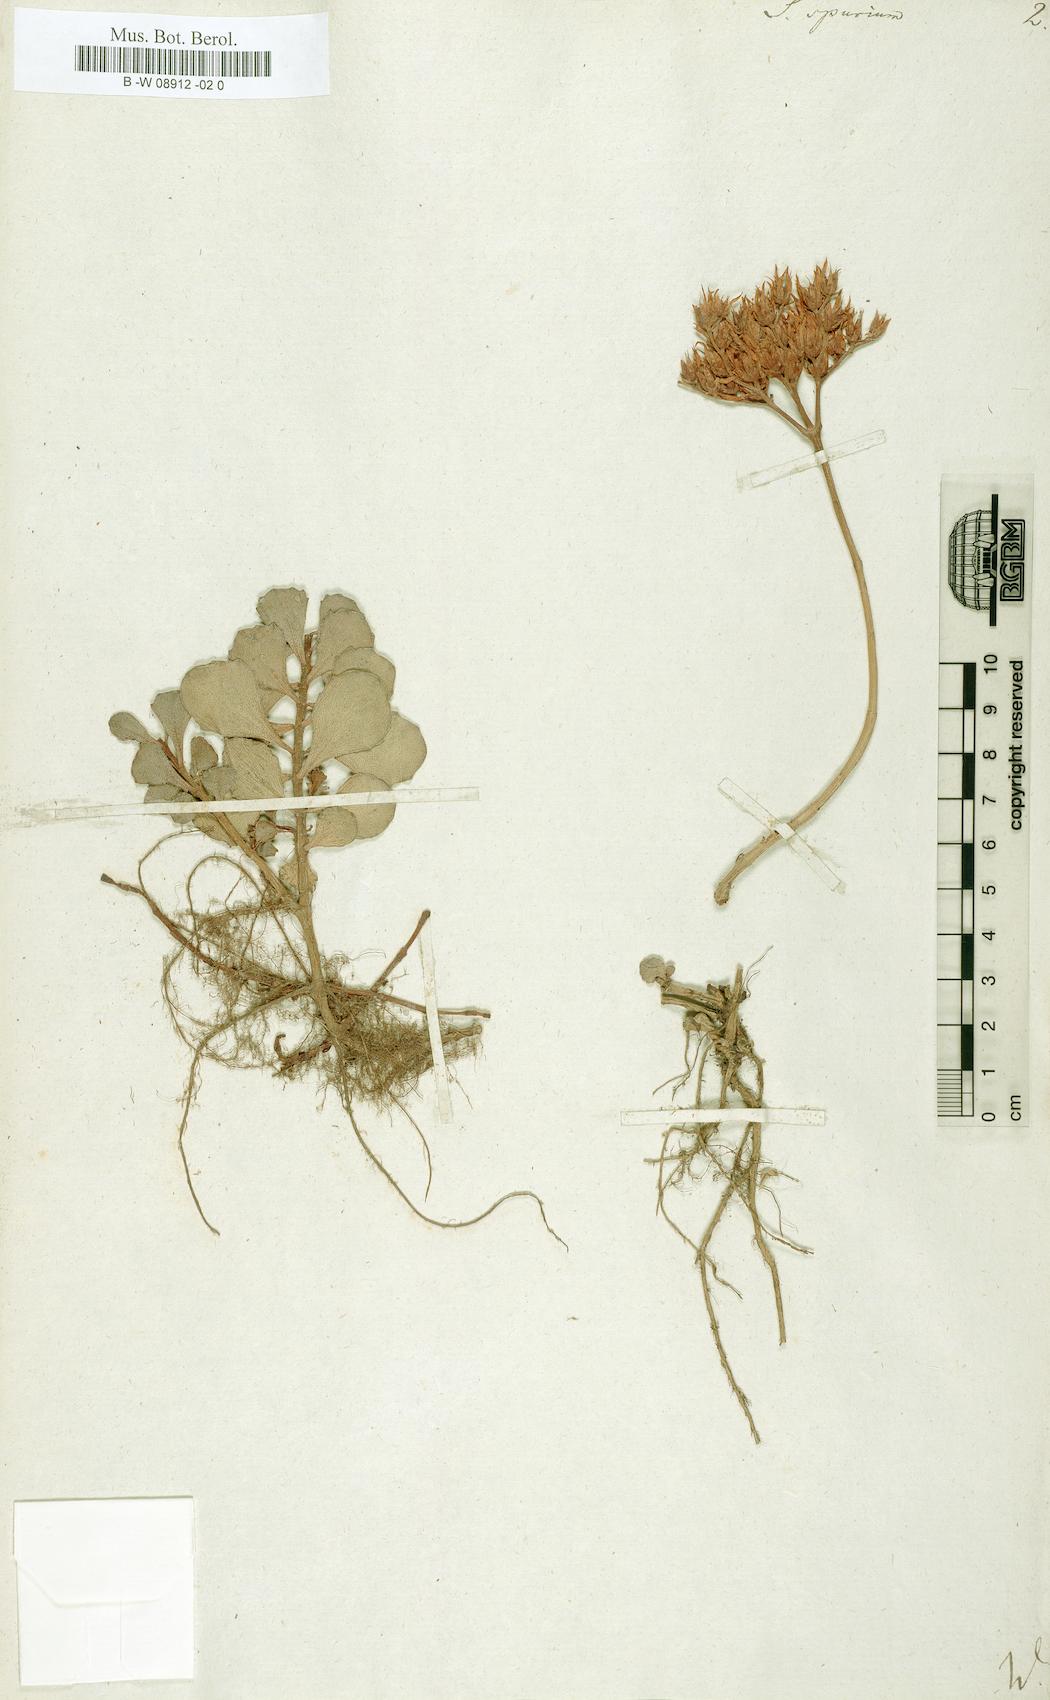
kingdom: Plantae
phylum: Tracheophyta
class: Magnoliopsida
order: Saxifragales
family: Crassulaceae
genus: Sedum
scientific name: Sedum spurium
